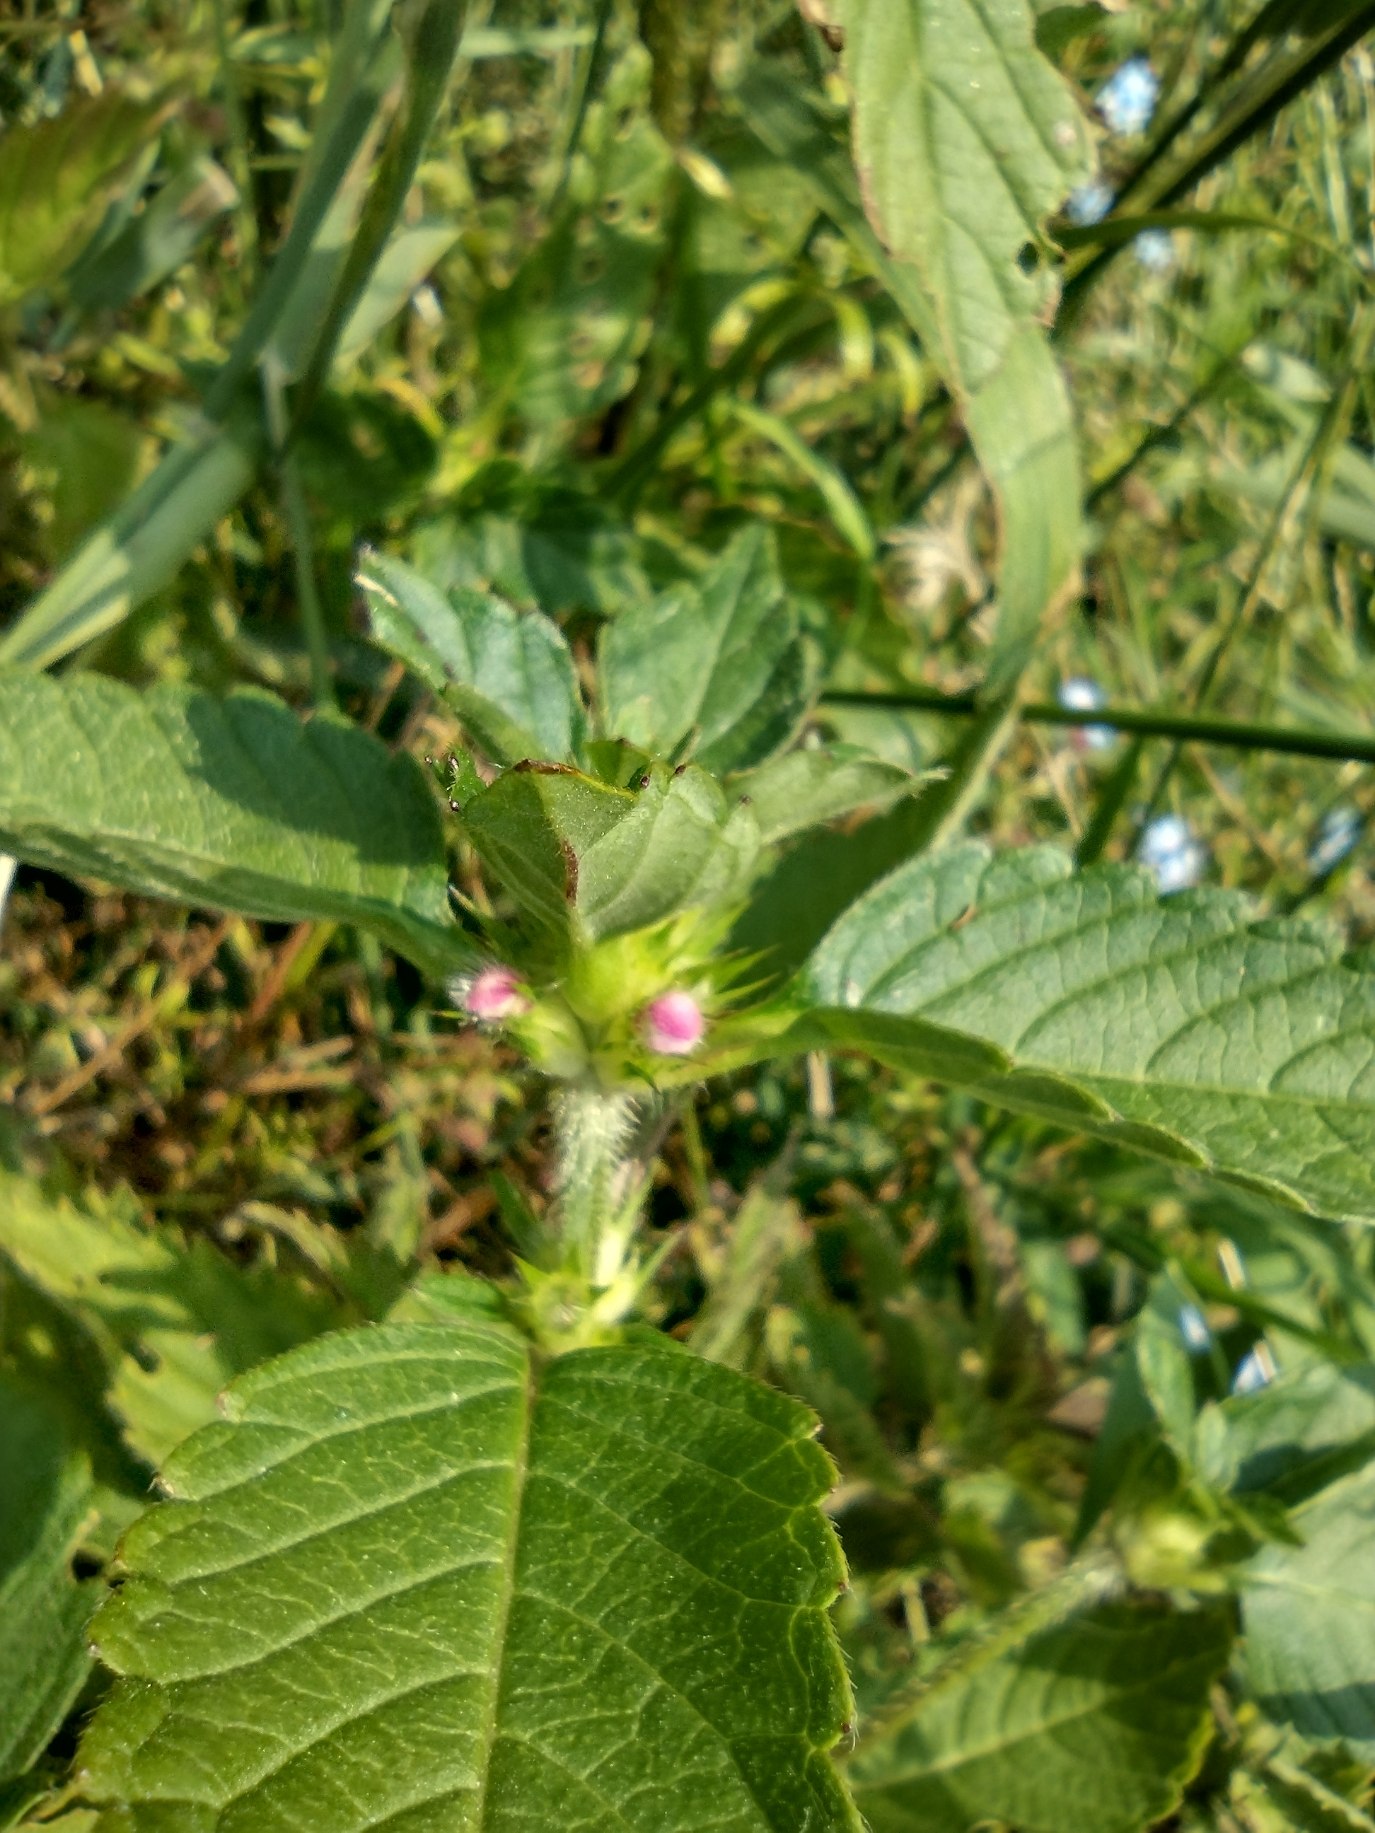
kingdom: Plantae
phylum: Tracheophyta
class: Magnoliopsida
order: Lamiales
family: Lamiaceae
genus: Galeopsis
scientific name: Galeopsis tetrahit
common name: Almindelig hanekro
